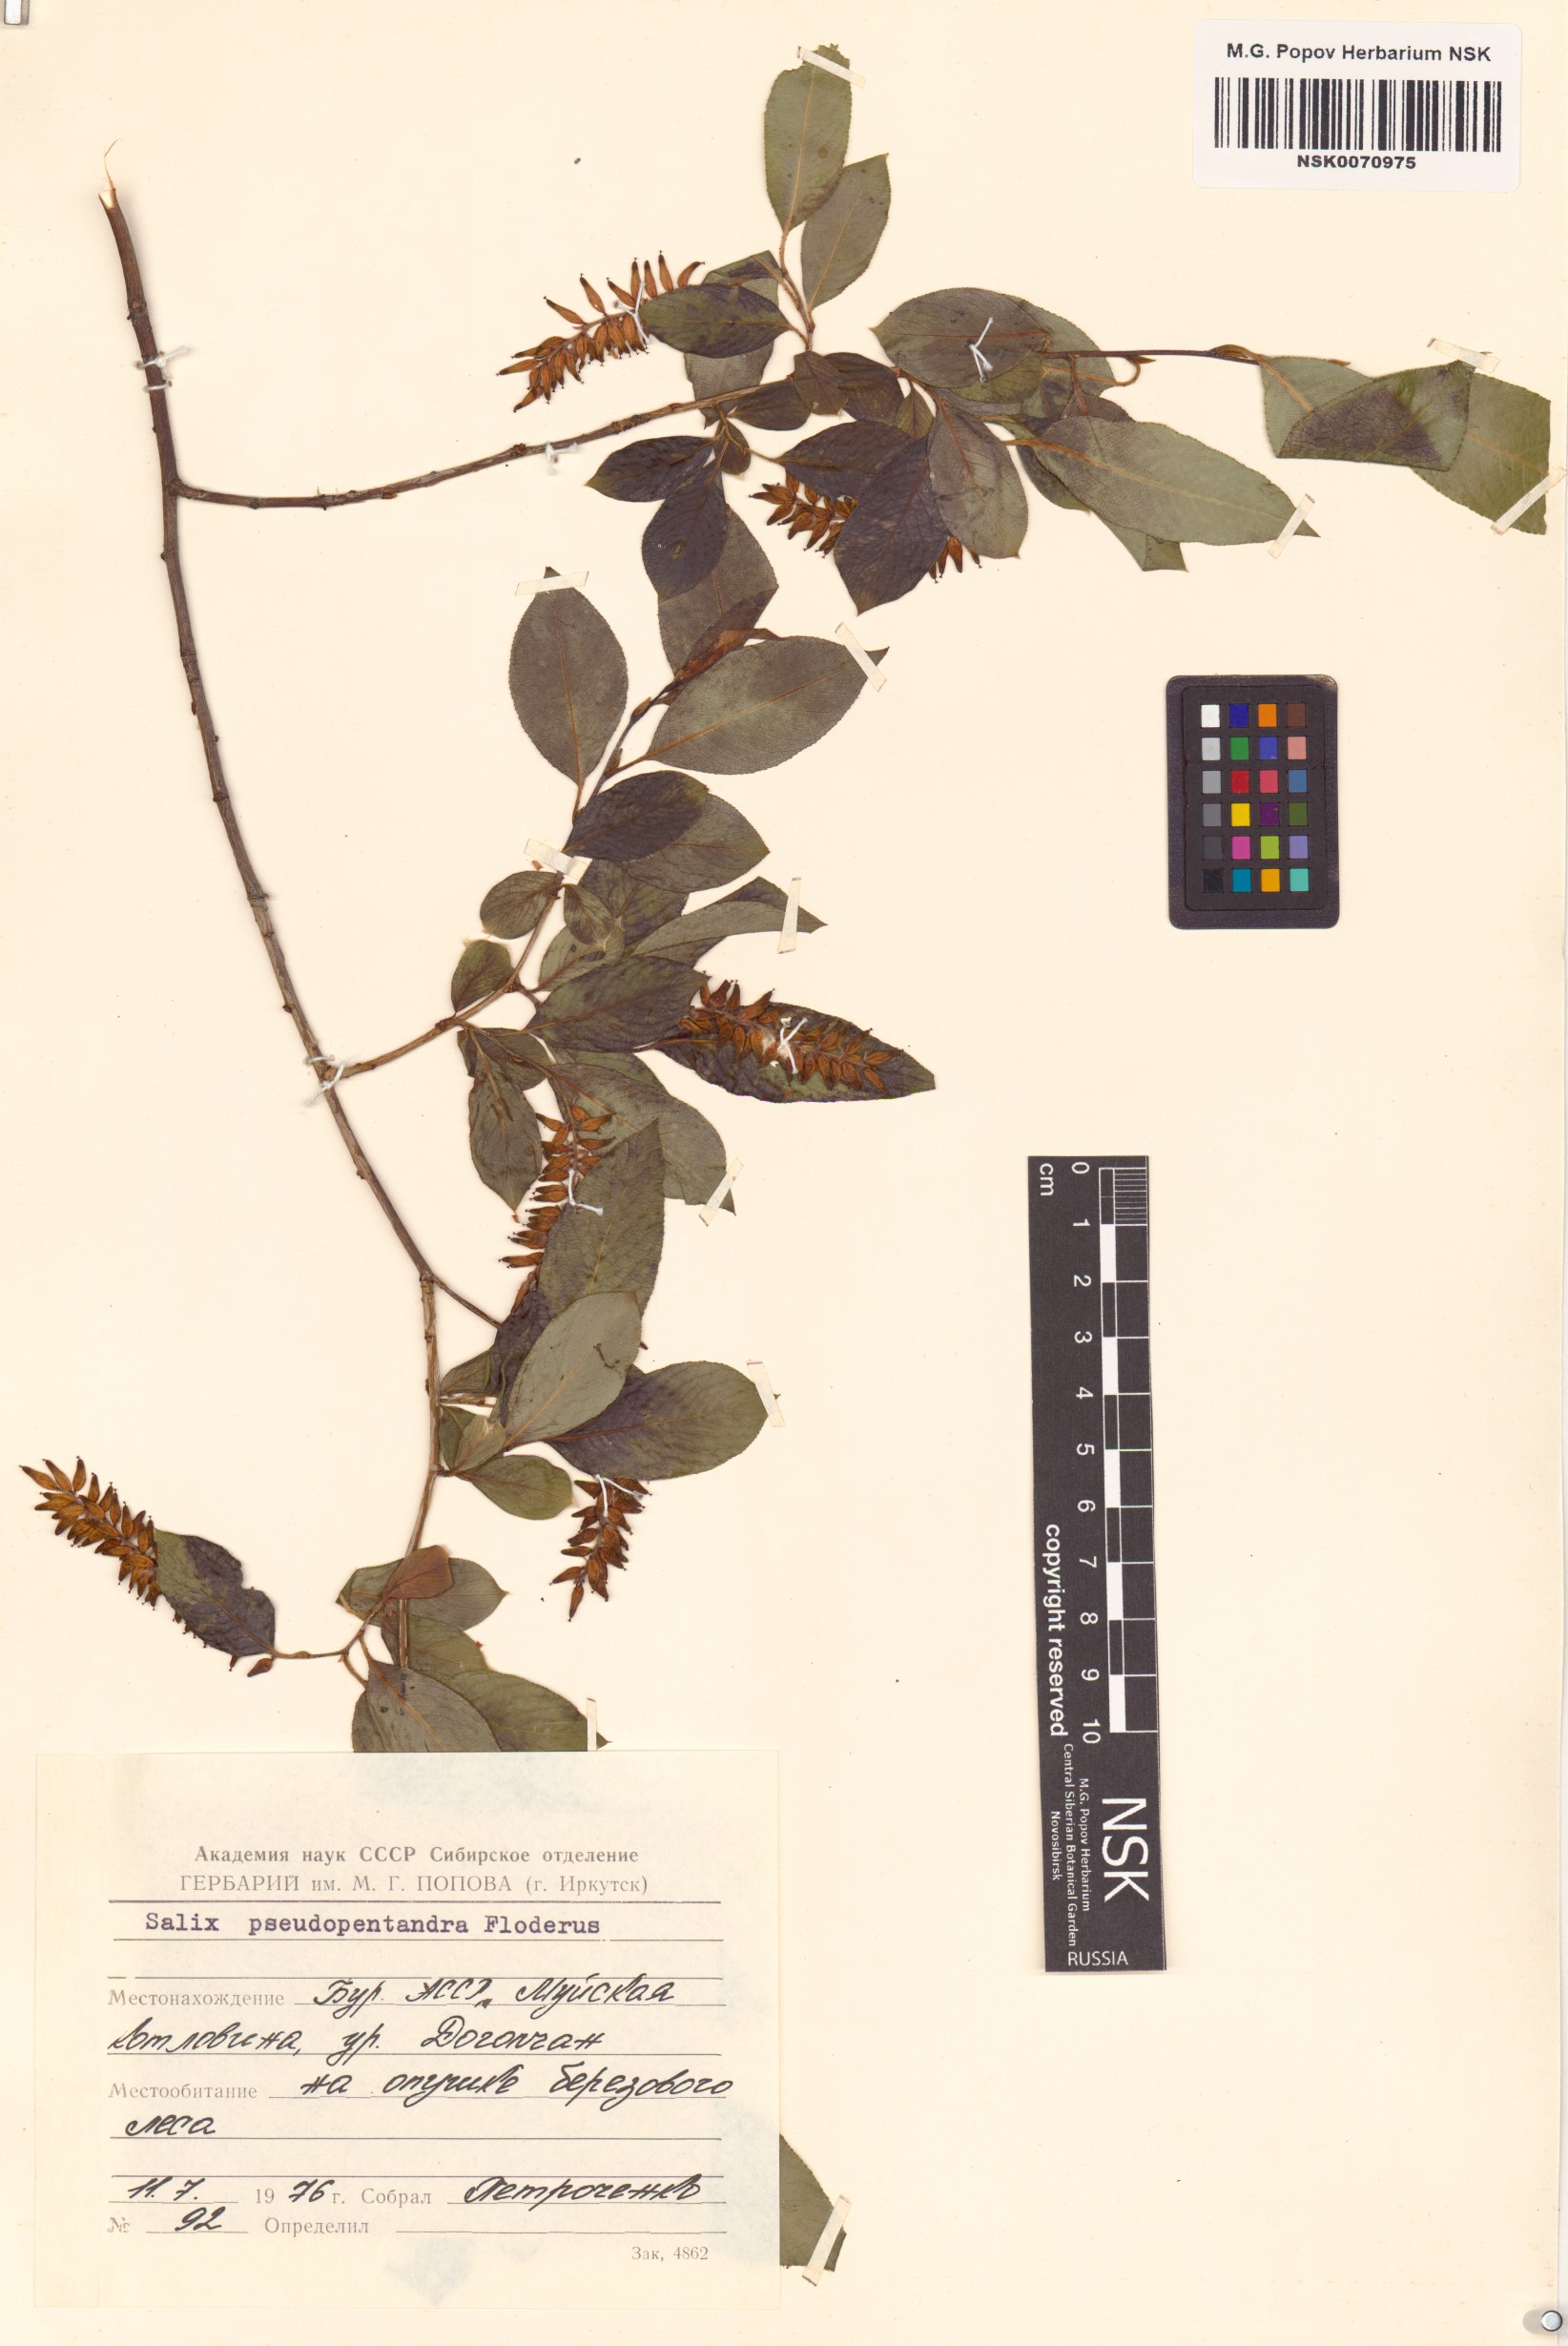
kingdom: Plantae
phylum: Tracheophyta
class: Magnoliopsida
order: Malpighiales
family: Salicaceae
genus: Salix
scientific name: Salix pseudopentandra
